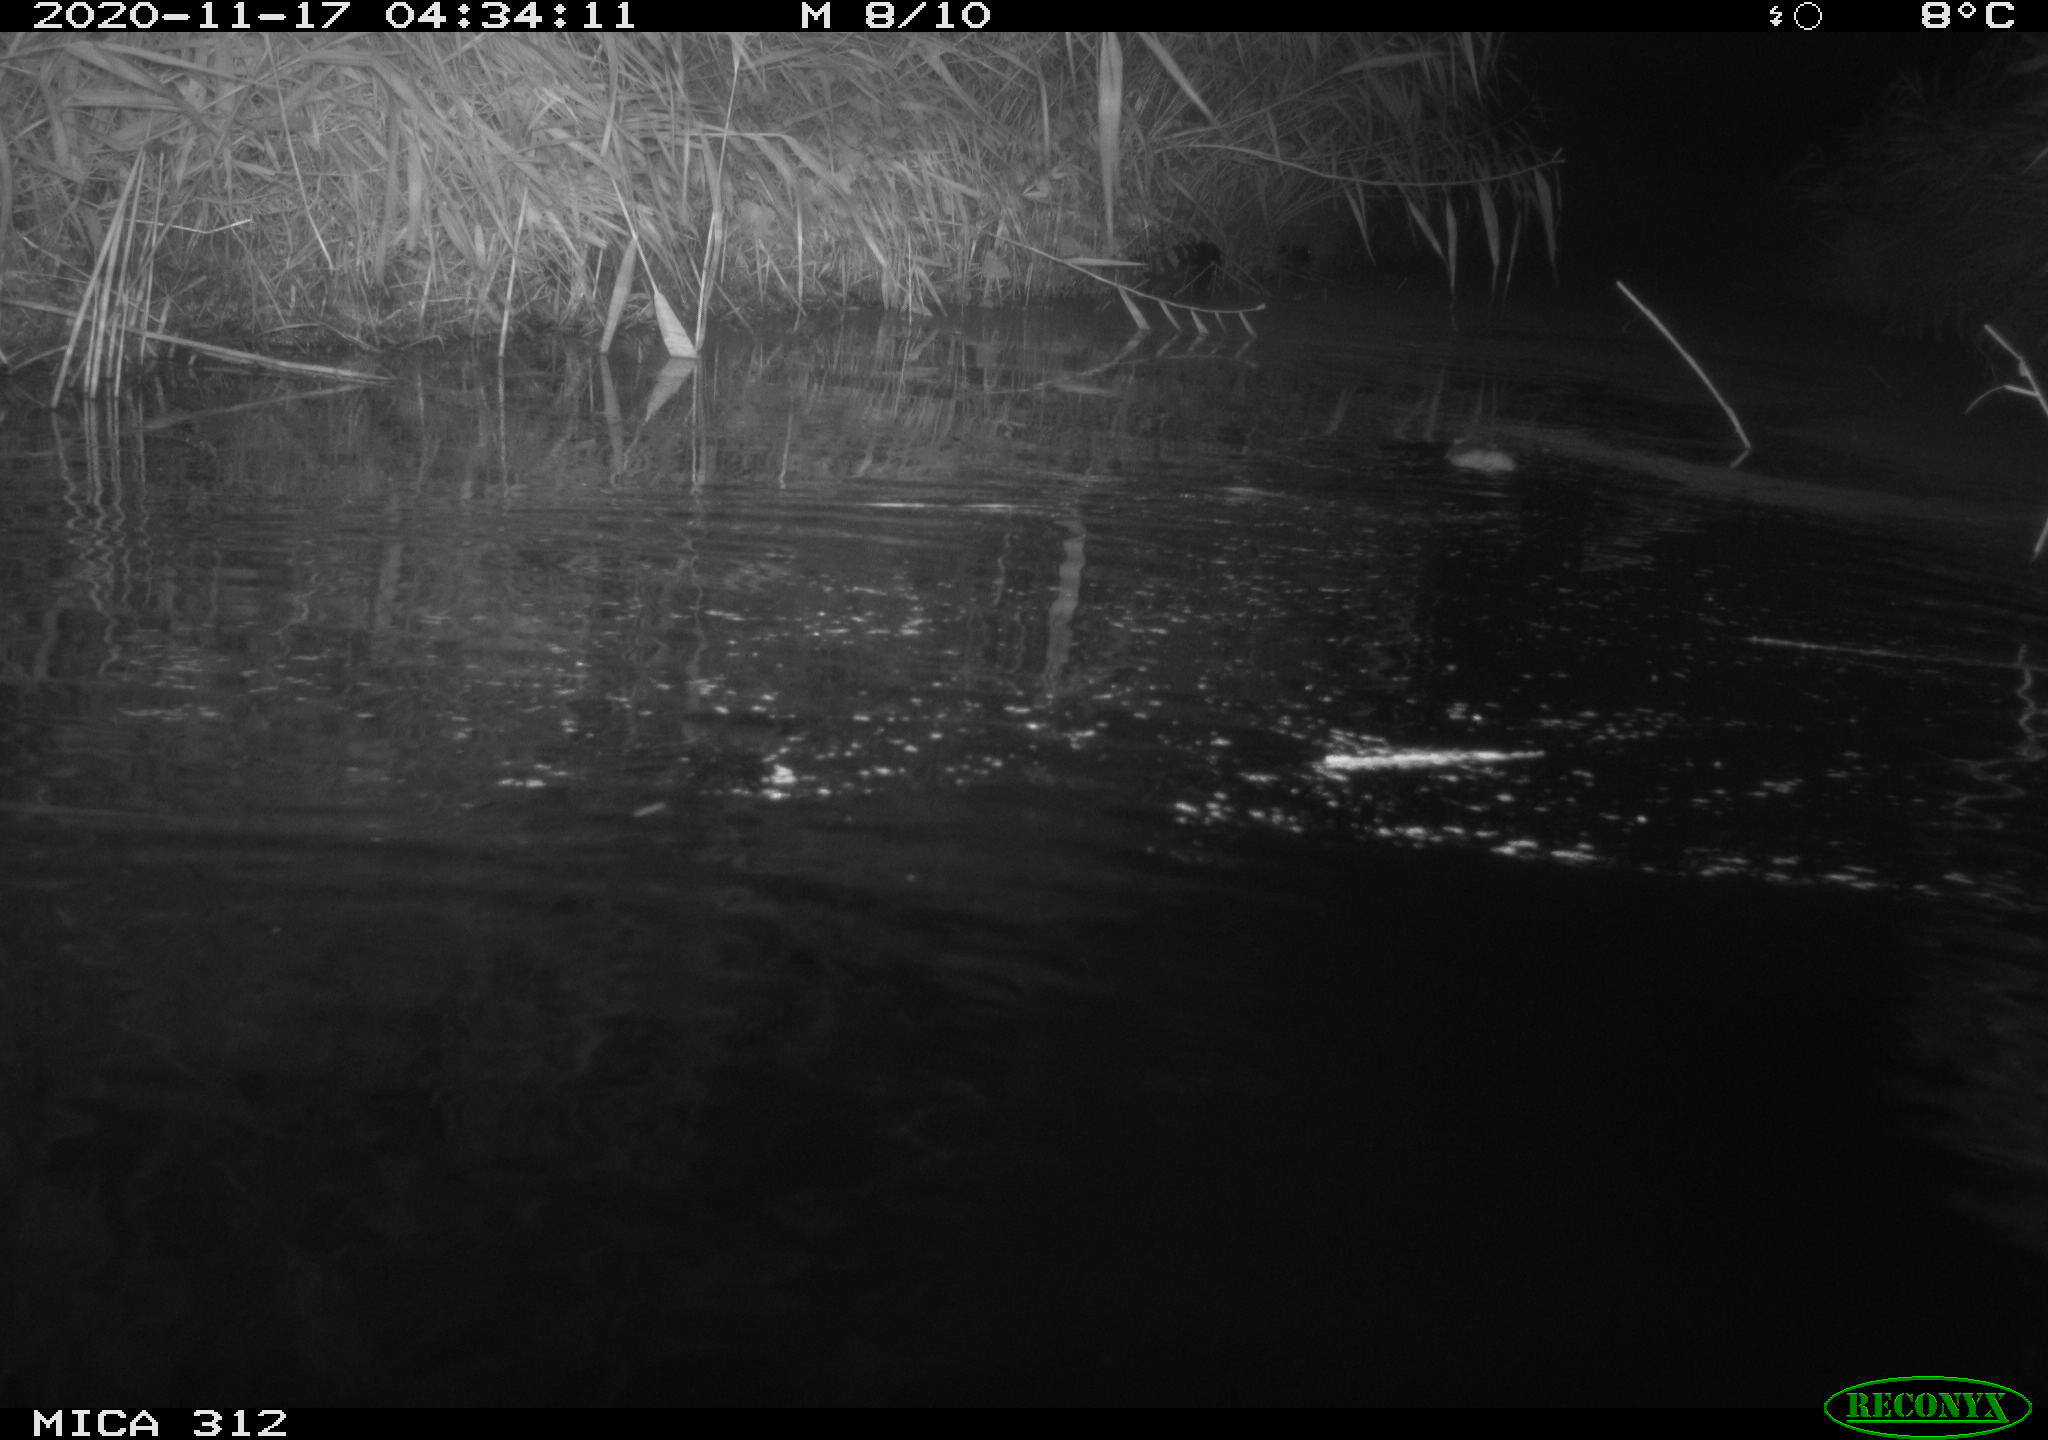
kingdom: Animalia
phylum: Chordata
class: Mammalia
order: Rodentia
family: Muridae
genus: Rattus
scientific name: Rattus norvegicus
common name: Brown rat
